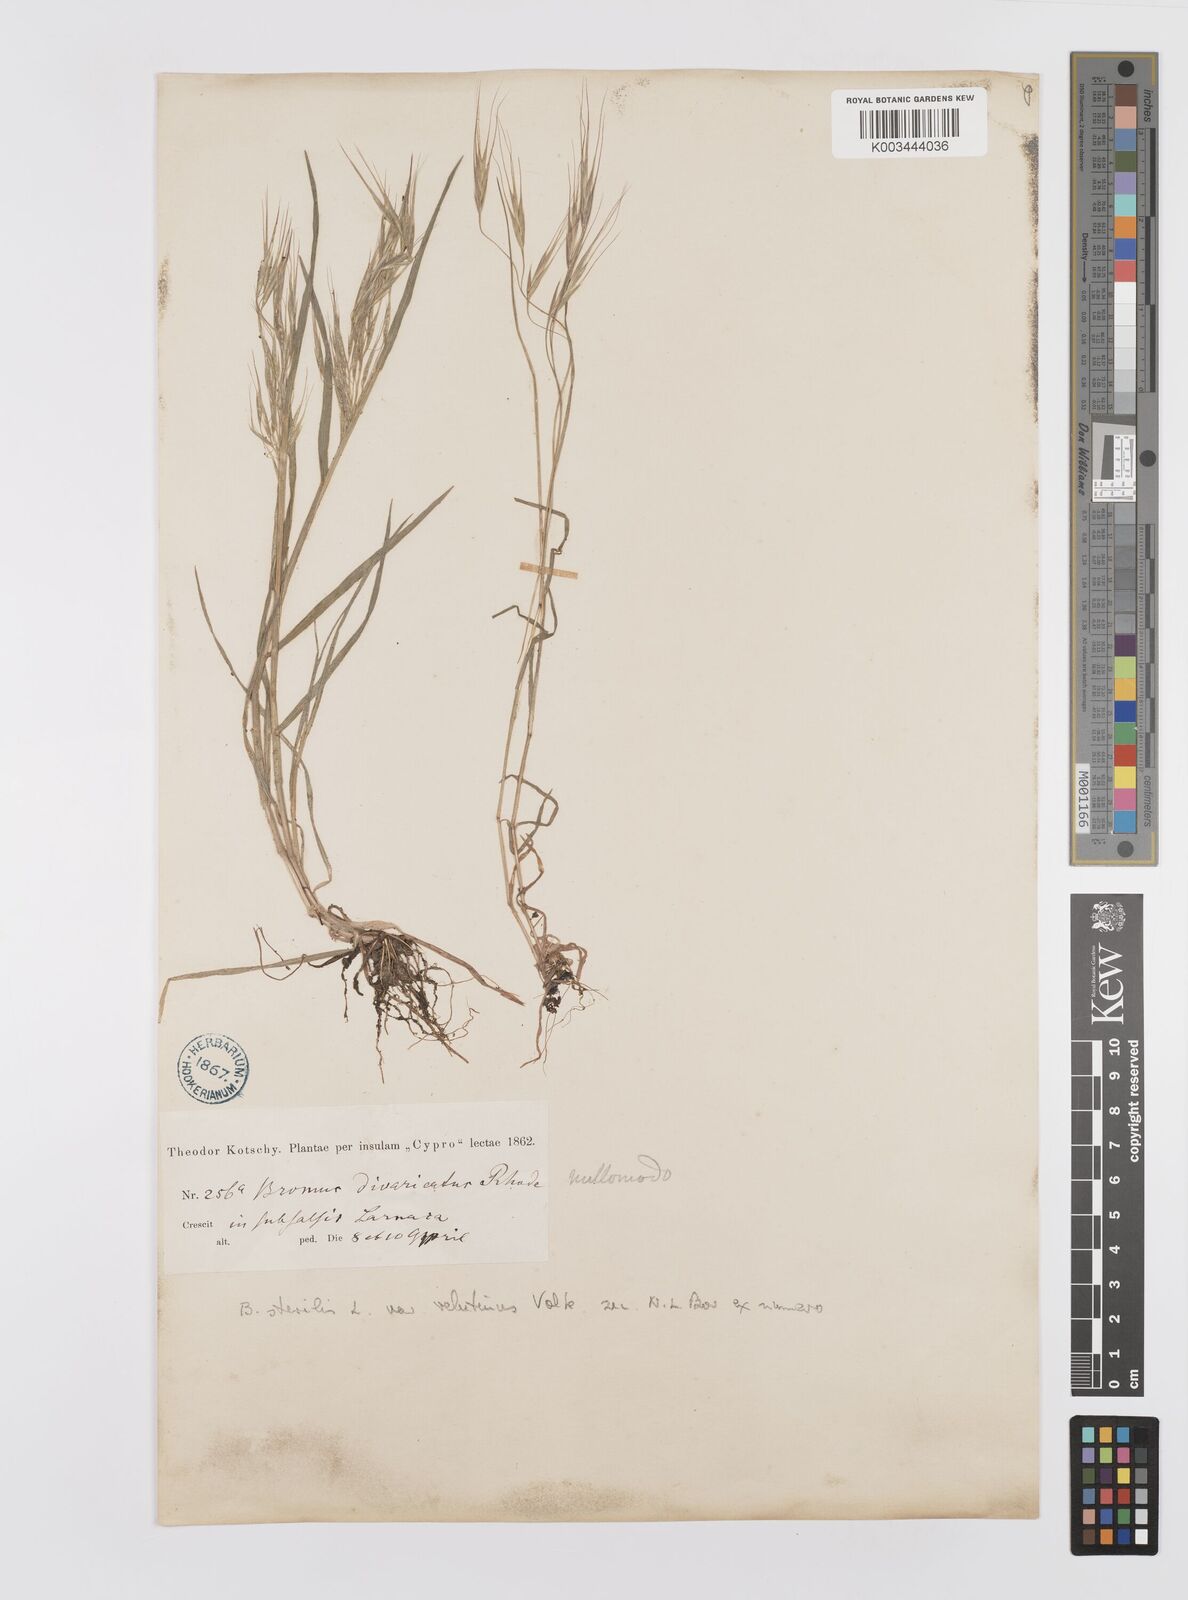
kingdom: Plantae
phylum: Tracheophyta
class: Liliopsida
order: Poales
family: Poaceae
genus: Bromus
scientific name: Bromus sterilis
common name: Poverty brome
